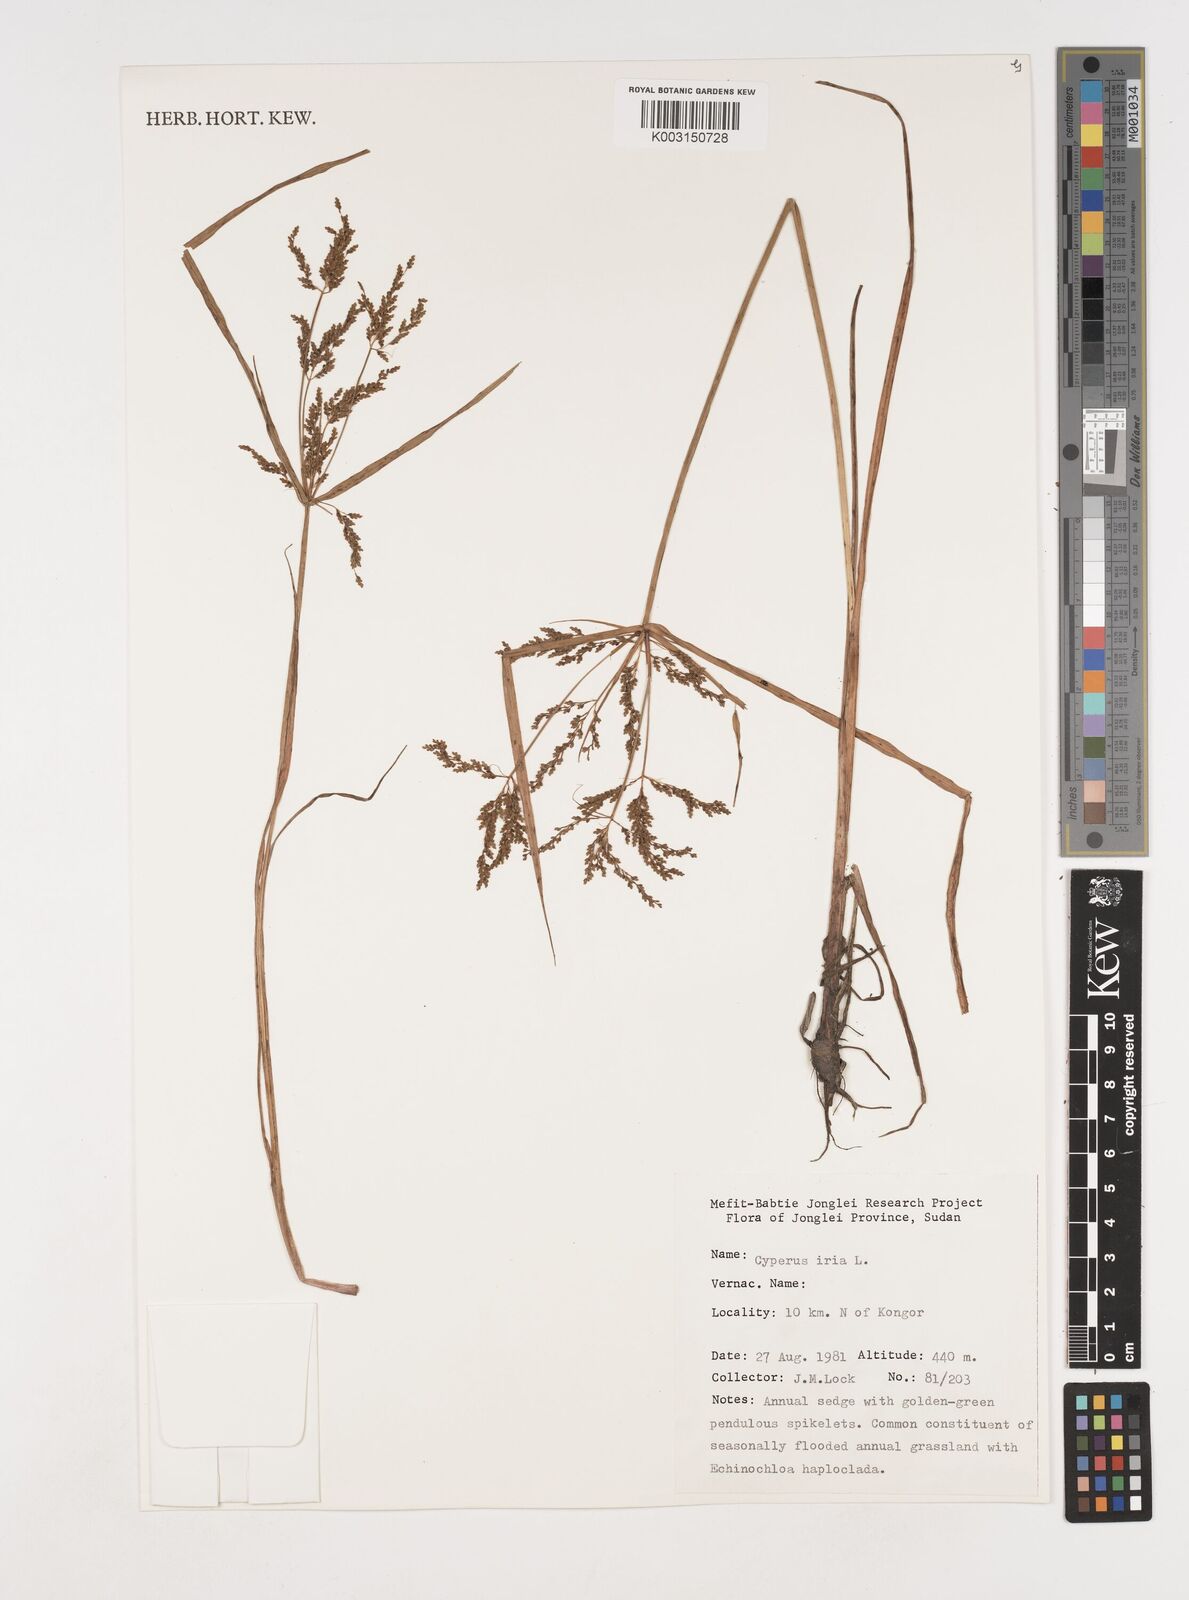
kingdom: Plantae
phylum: Tracheophyta
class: Liliopsida
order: Poales
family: Cyperaceae
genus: Cyperus
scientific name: Cyperus iria
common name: Ricefield flatsedge
